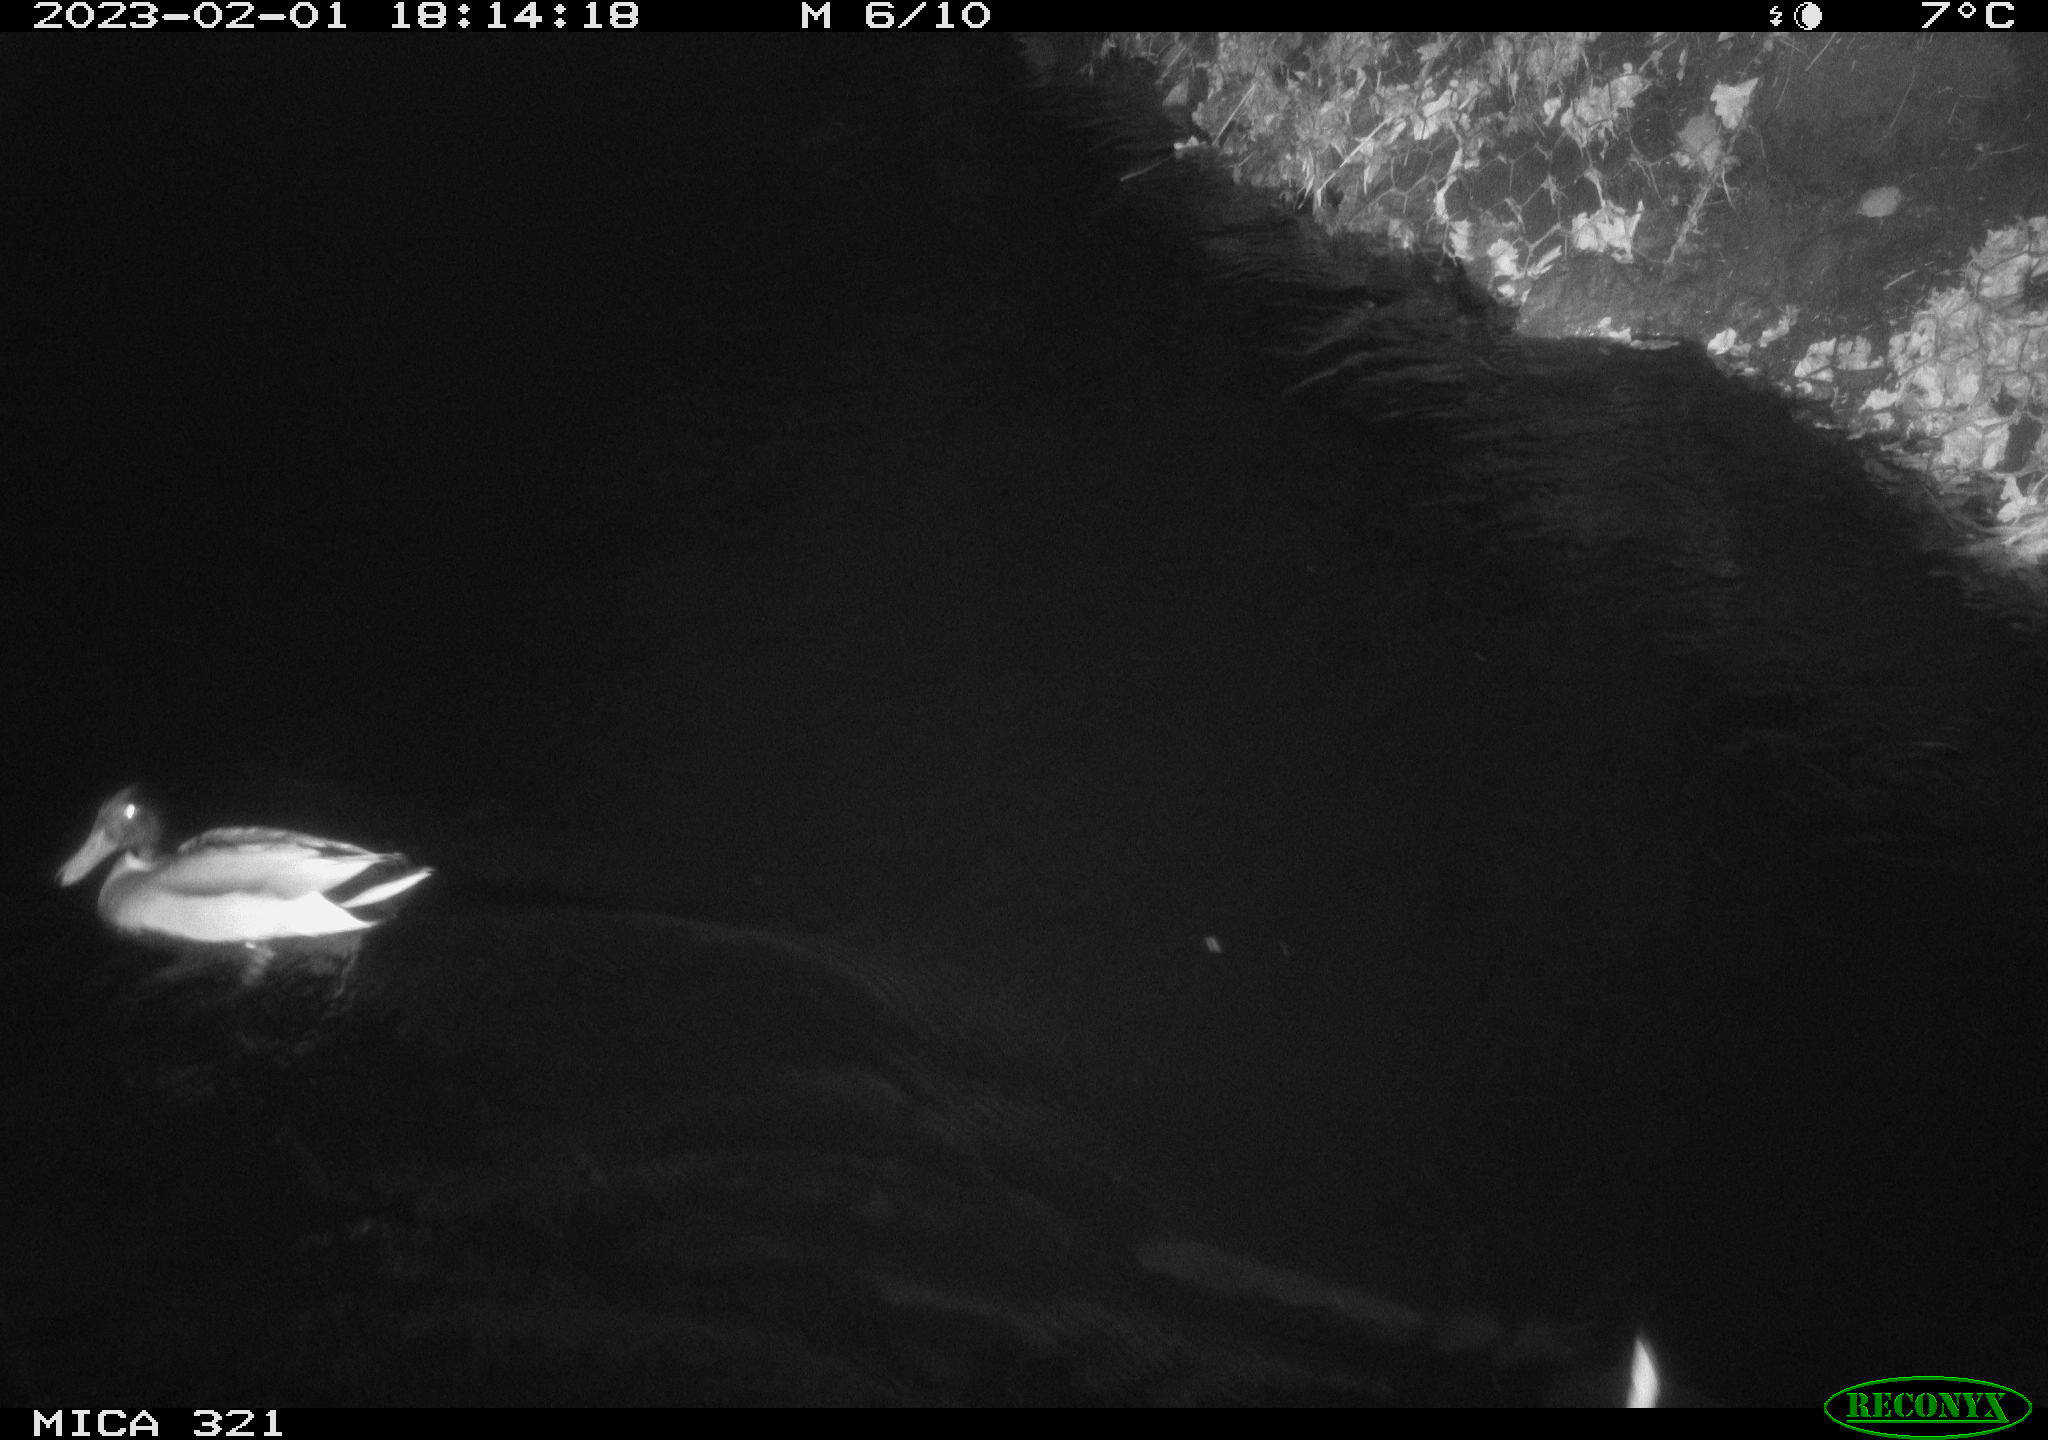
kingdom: Animalia
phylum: Chordata
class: Aves
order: Anseriformes
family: Anatidae
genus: Anas
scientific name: Anas
